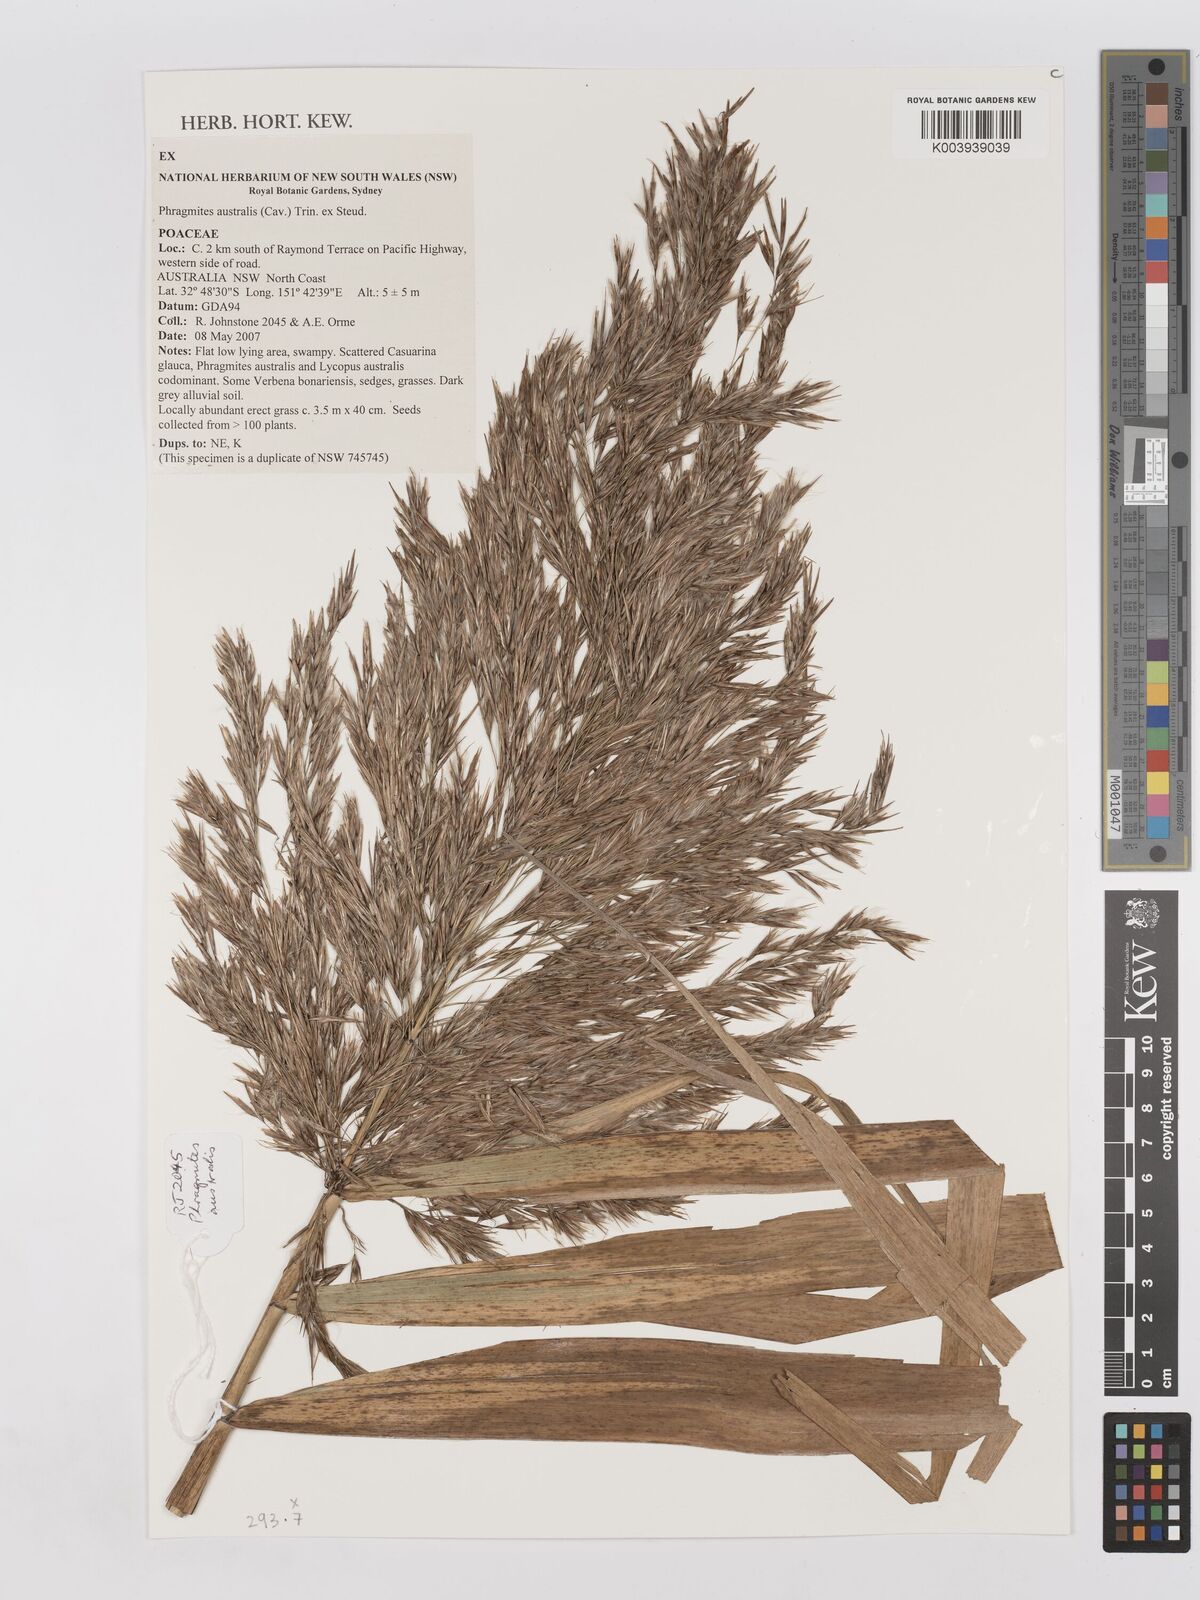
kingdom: Plantae
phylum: Tracheophyta
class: Liliopsida
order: Poales
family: Poaceae
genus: Phragmites
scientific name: Phragmites australis
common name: Common reed
